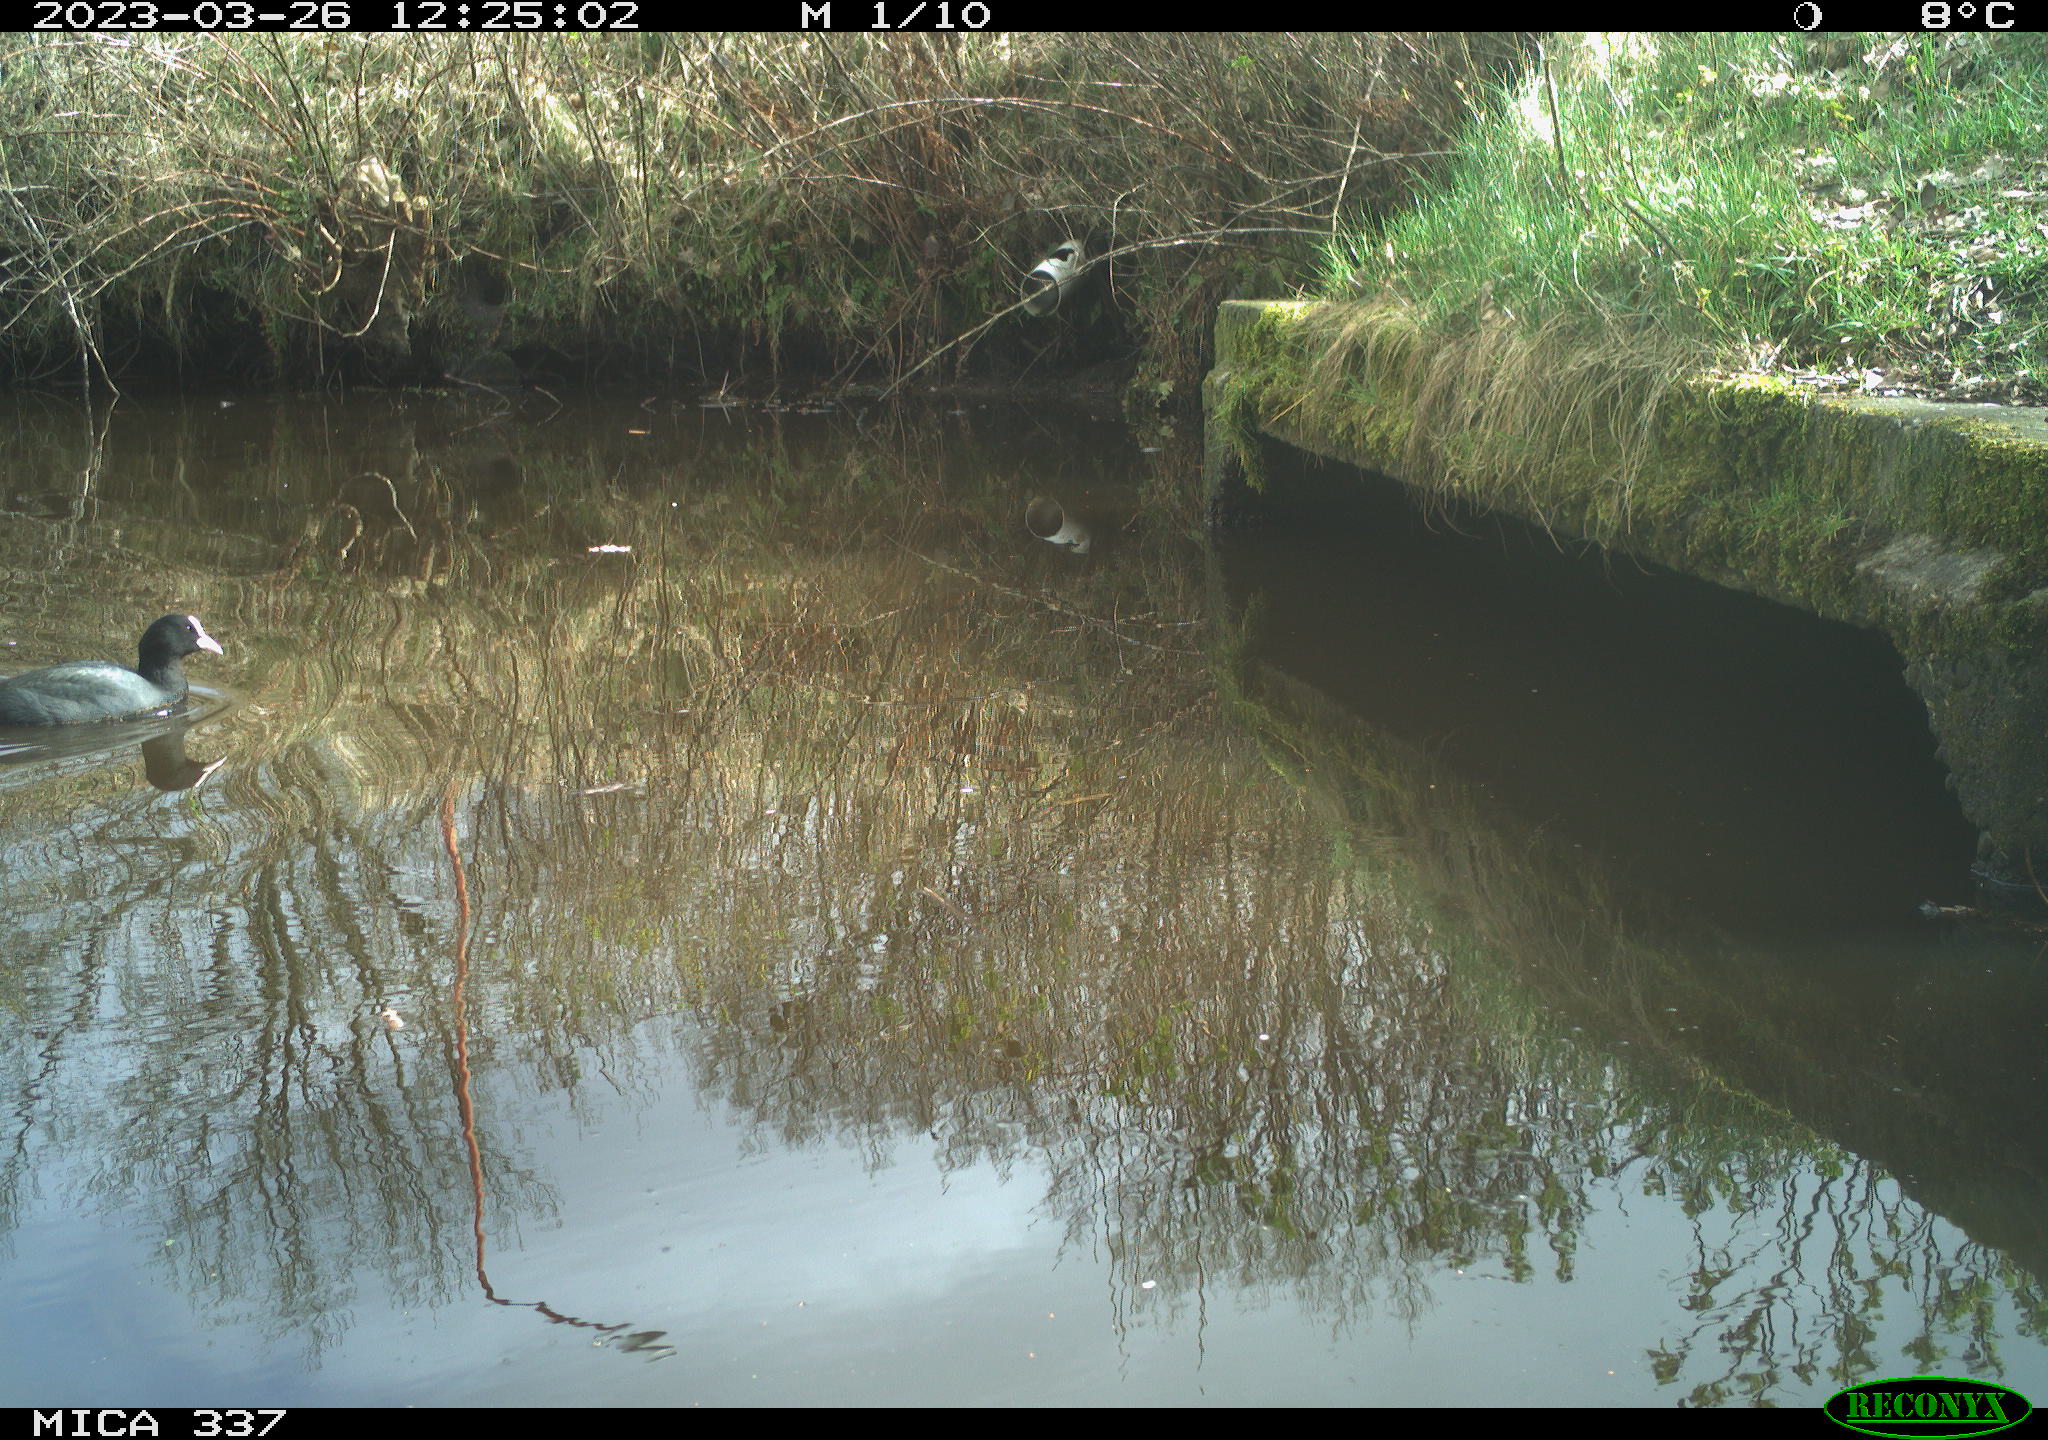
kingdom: Animalia
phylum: Chordata
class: Aves
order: Gruiformes
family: Rallidae
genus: Fulica
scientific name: Fulica atra
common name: Eurasian coot
